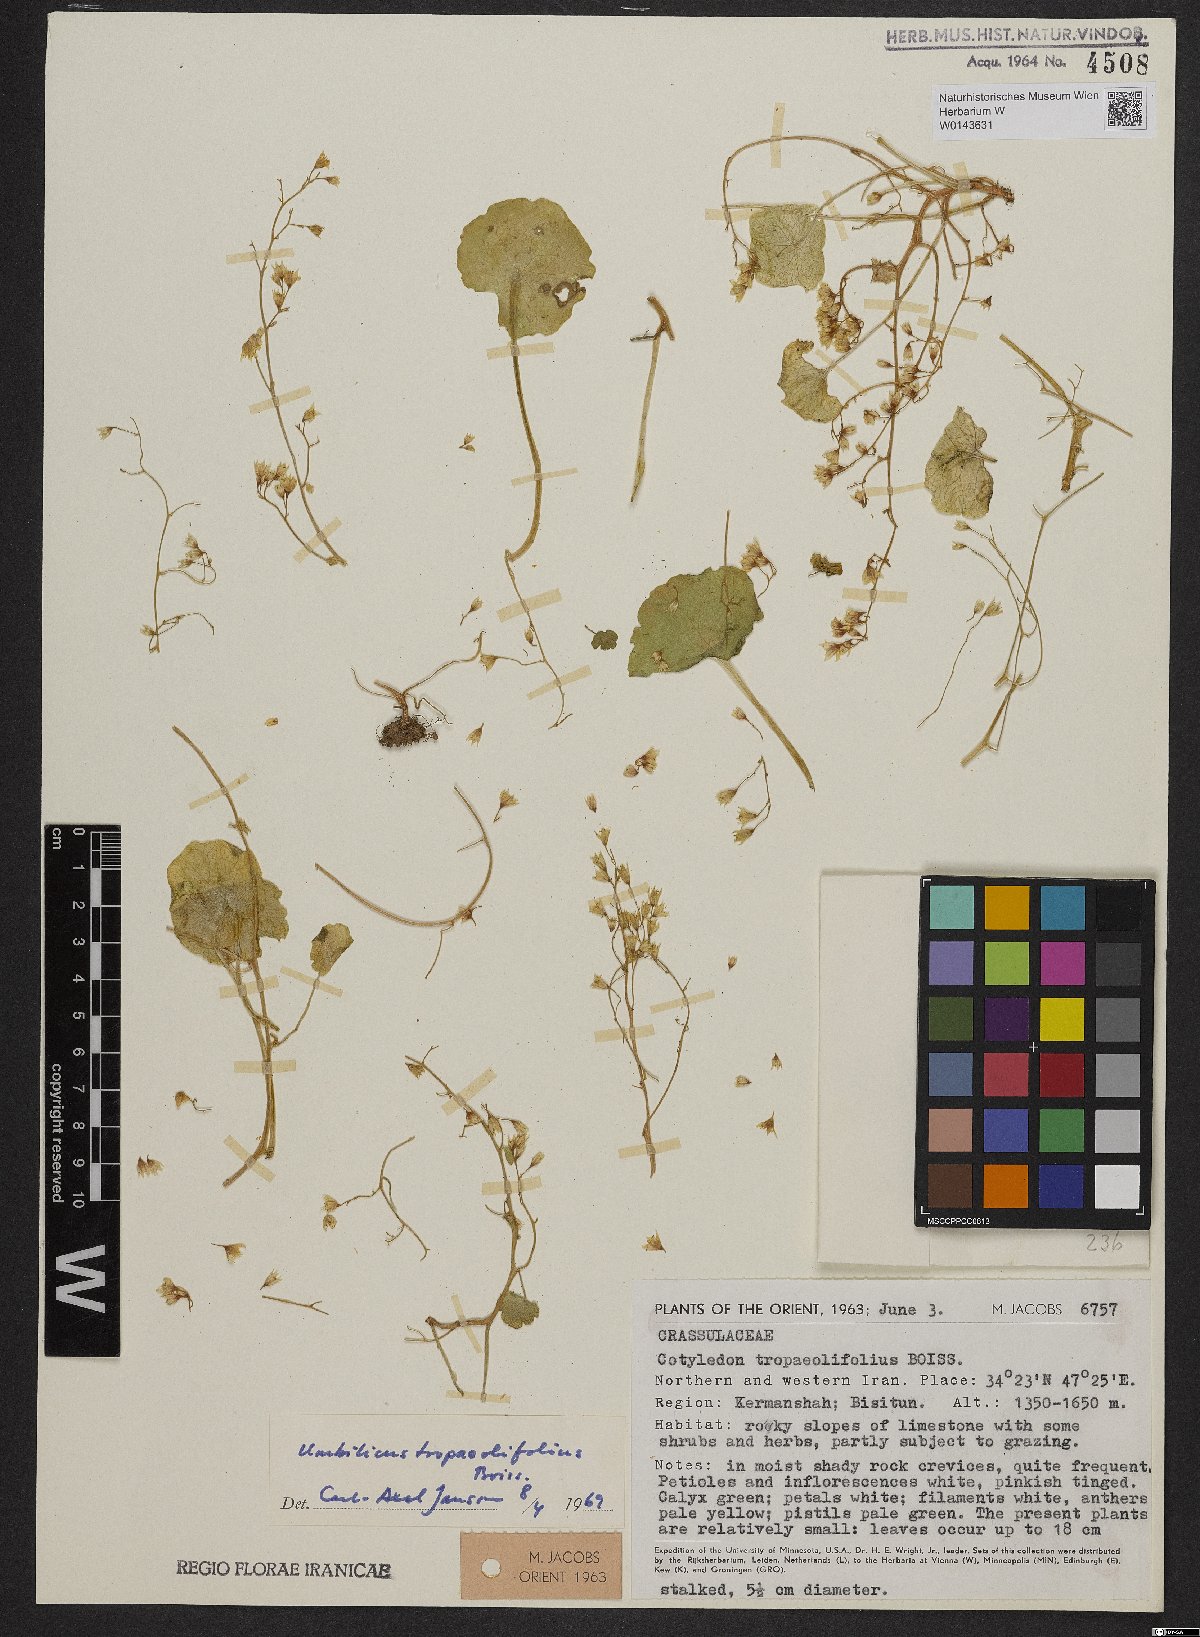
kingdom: Plantae
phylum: Tracheophyta
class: Magnoliopsida
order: Saxifragales
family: Crassulaceae
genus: Umbilicus
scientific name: Umbilicus tropaeolifolius
